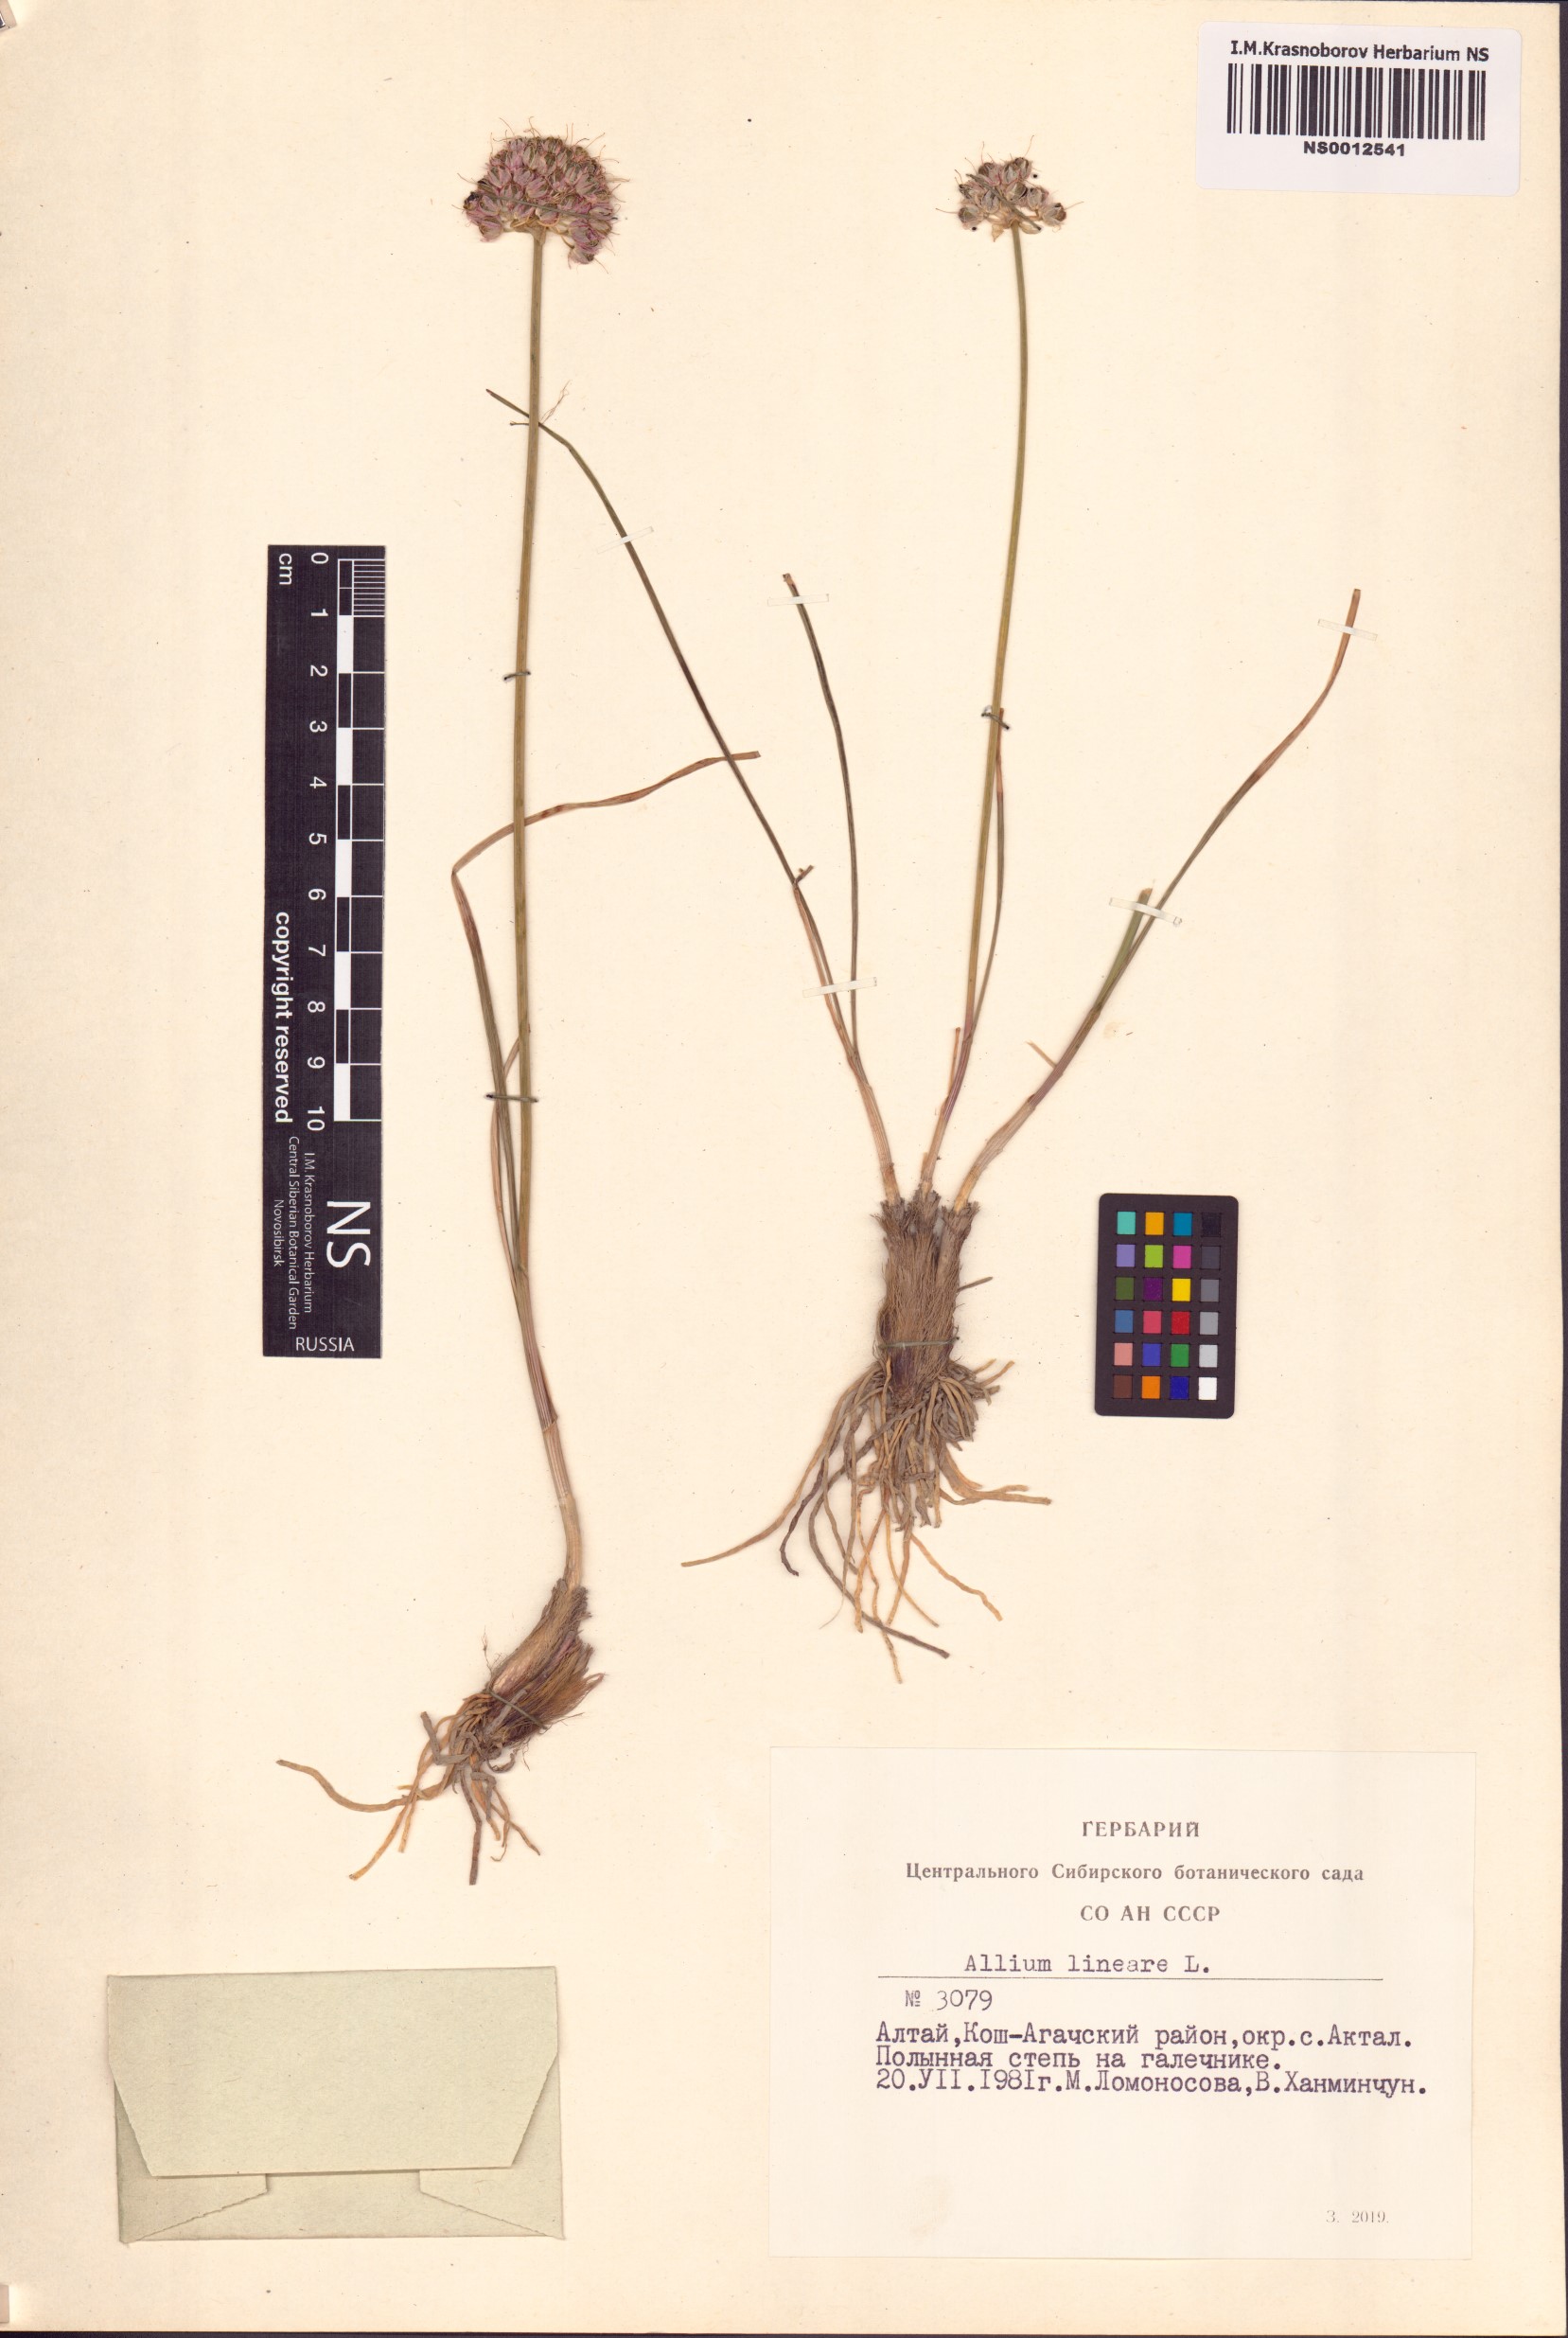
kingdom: Plantae
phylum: Tracheophyta
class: Liliopsida
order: Asparagales
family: Amaryllidaceae
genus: Allium
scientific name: Allium lineare
